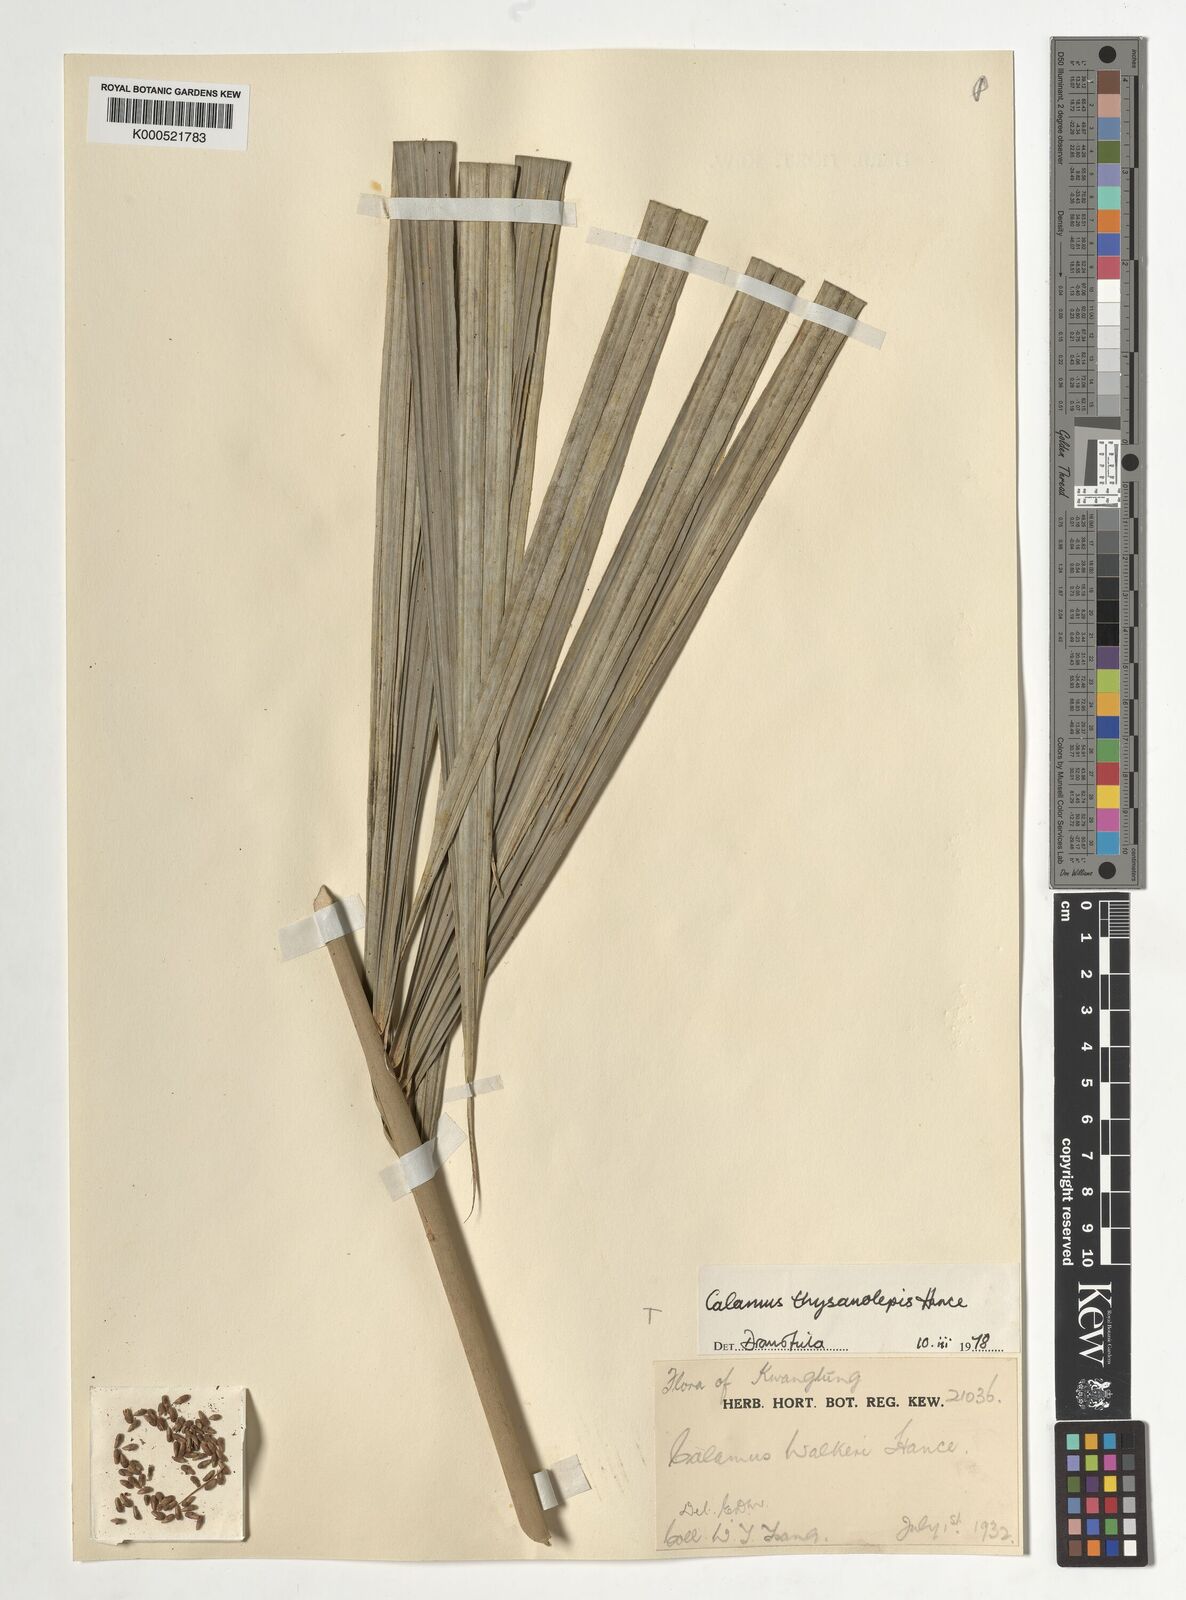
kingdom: Plantae
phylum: Tracheophyta
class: Liliopsida
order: Arecales
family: Arecaceae
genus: Calamus
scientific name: Calamus thysanolepis
